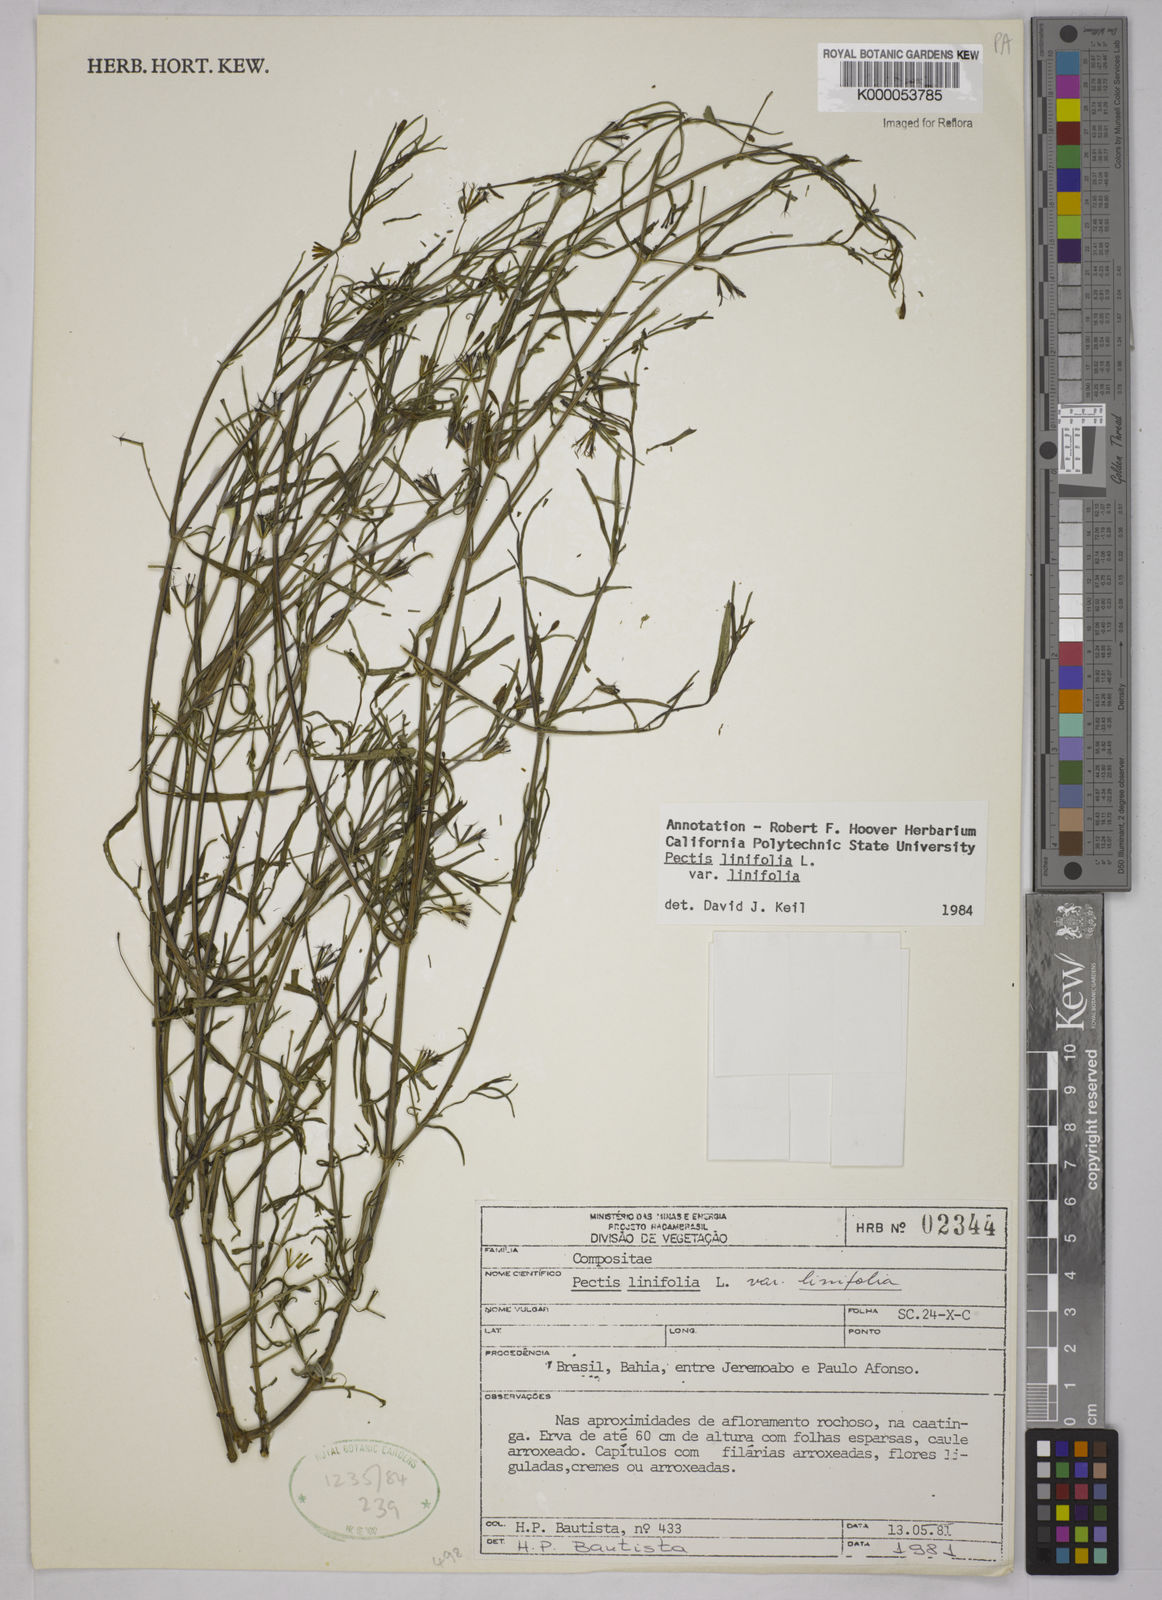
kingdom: Plantae
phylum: Tracheophyta
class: Magnoliopsida
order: Asterales
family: Asteraceae
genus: Pectis
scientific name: Pectis linifolia
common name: Romero macho
